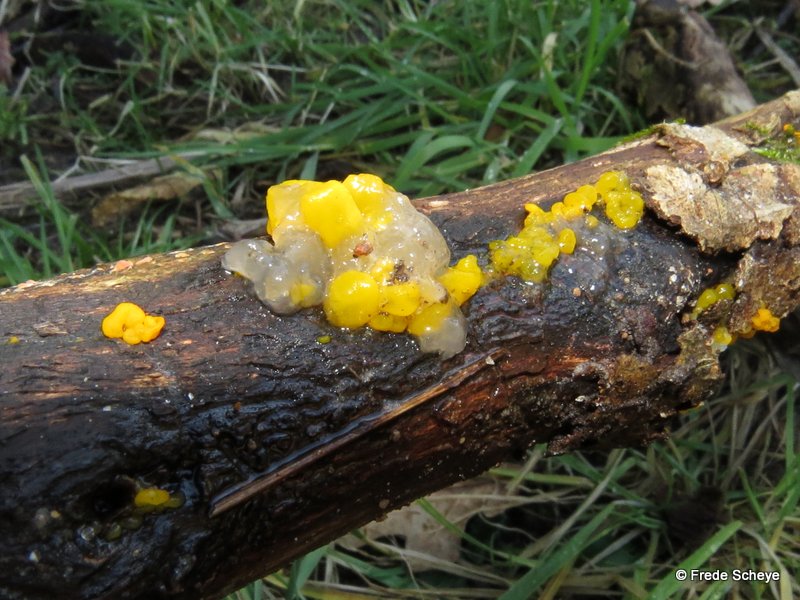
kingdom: Fungi
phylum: Basidiomycota
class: Tremellomycetes
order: Tremellales
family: Tremellaceae
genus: Tremella
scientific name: Tremella mesenterica
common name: gul bævresvamp
